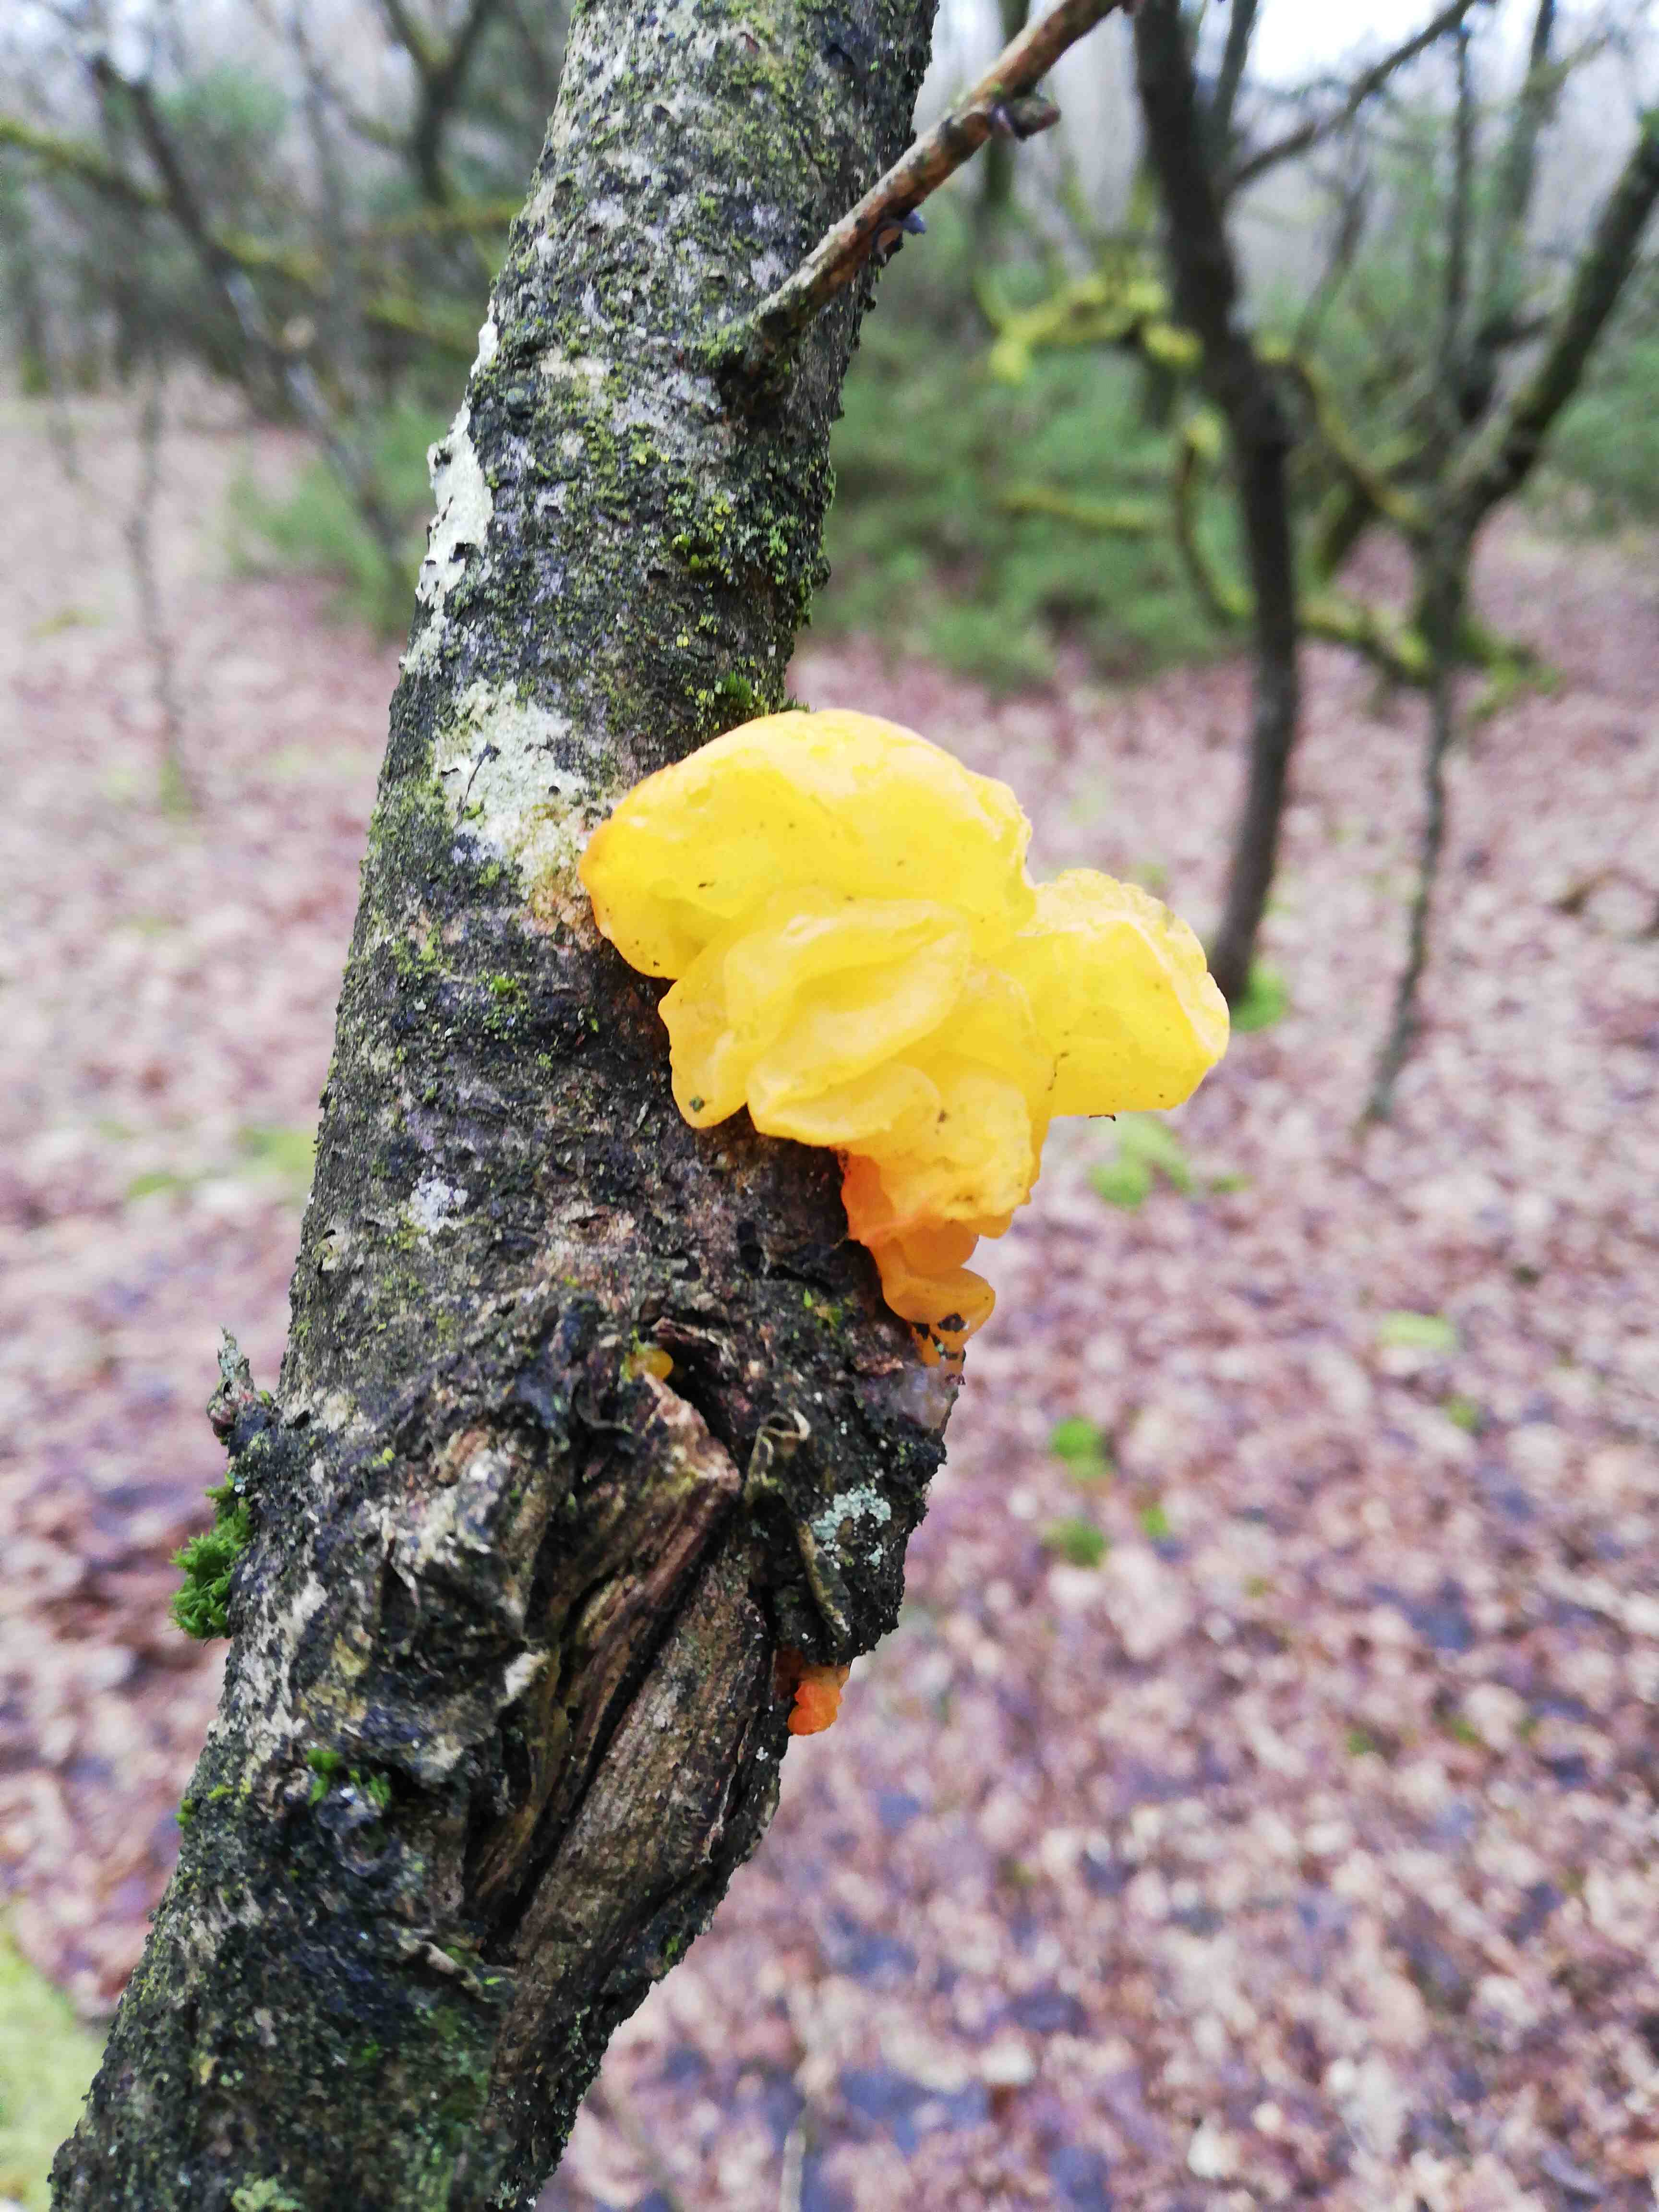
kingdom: Fungi
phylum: Basidiomycota
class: Tremellomycetes
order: Tremellales
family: Tremellaceae
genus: Tremella
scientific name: Tremella mesenterica
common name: gul bævresvamp
